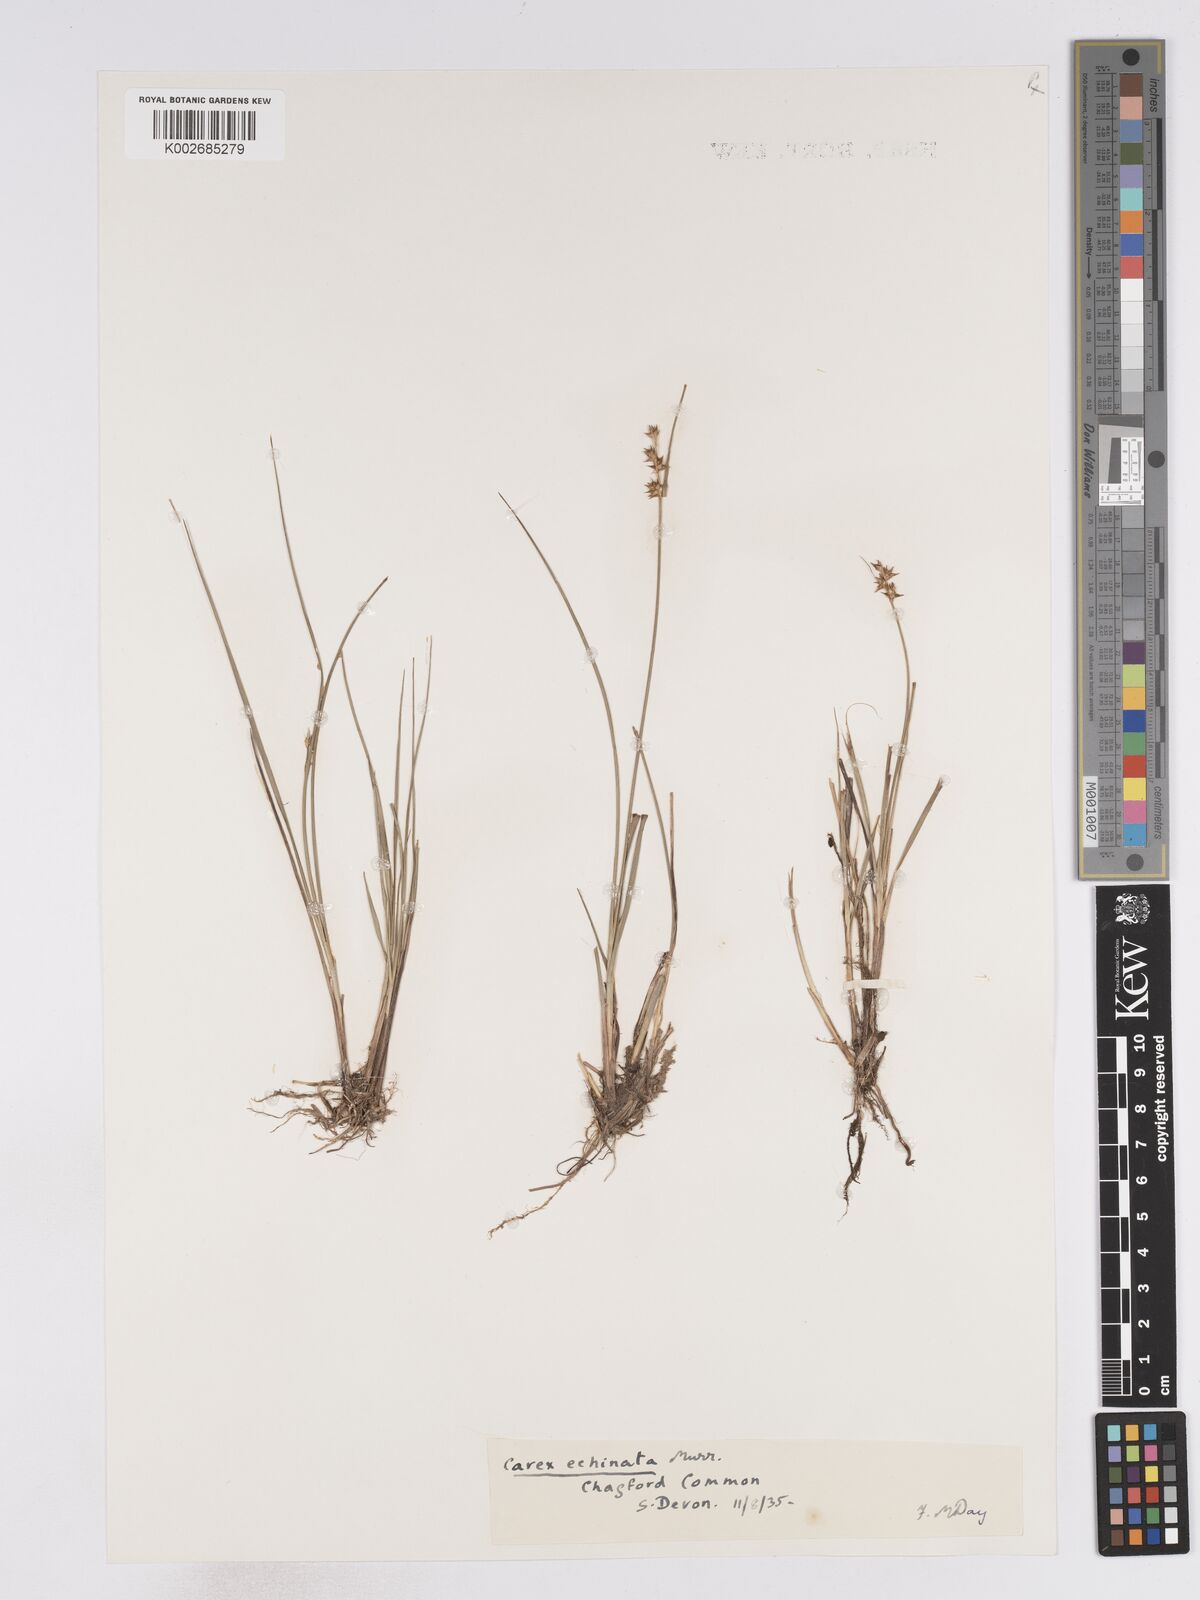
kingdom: Plantae
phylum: Tracheophyta
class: Liliopsida
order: Poales
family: Cyperaceae
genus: Carex
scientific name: Carex echinata
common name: Star sedge
